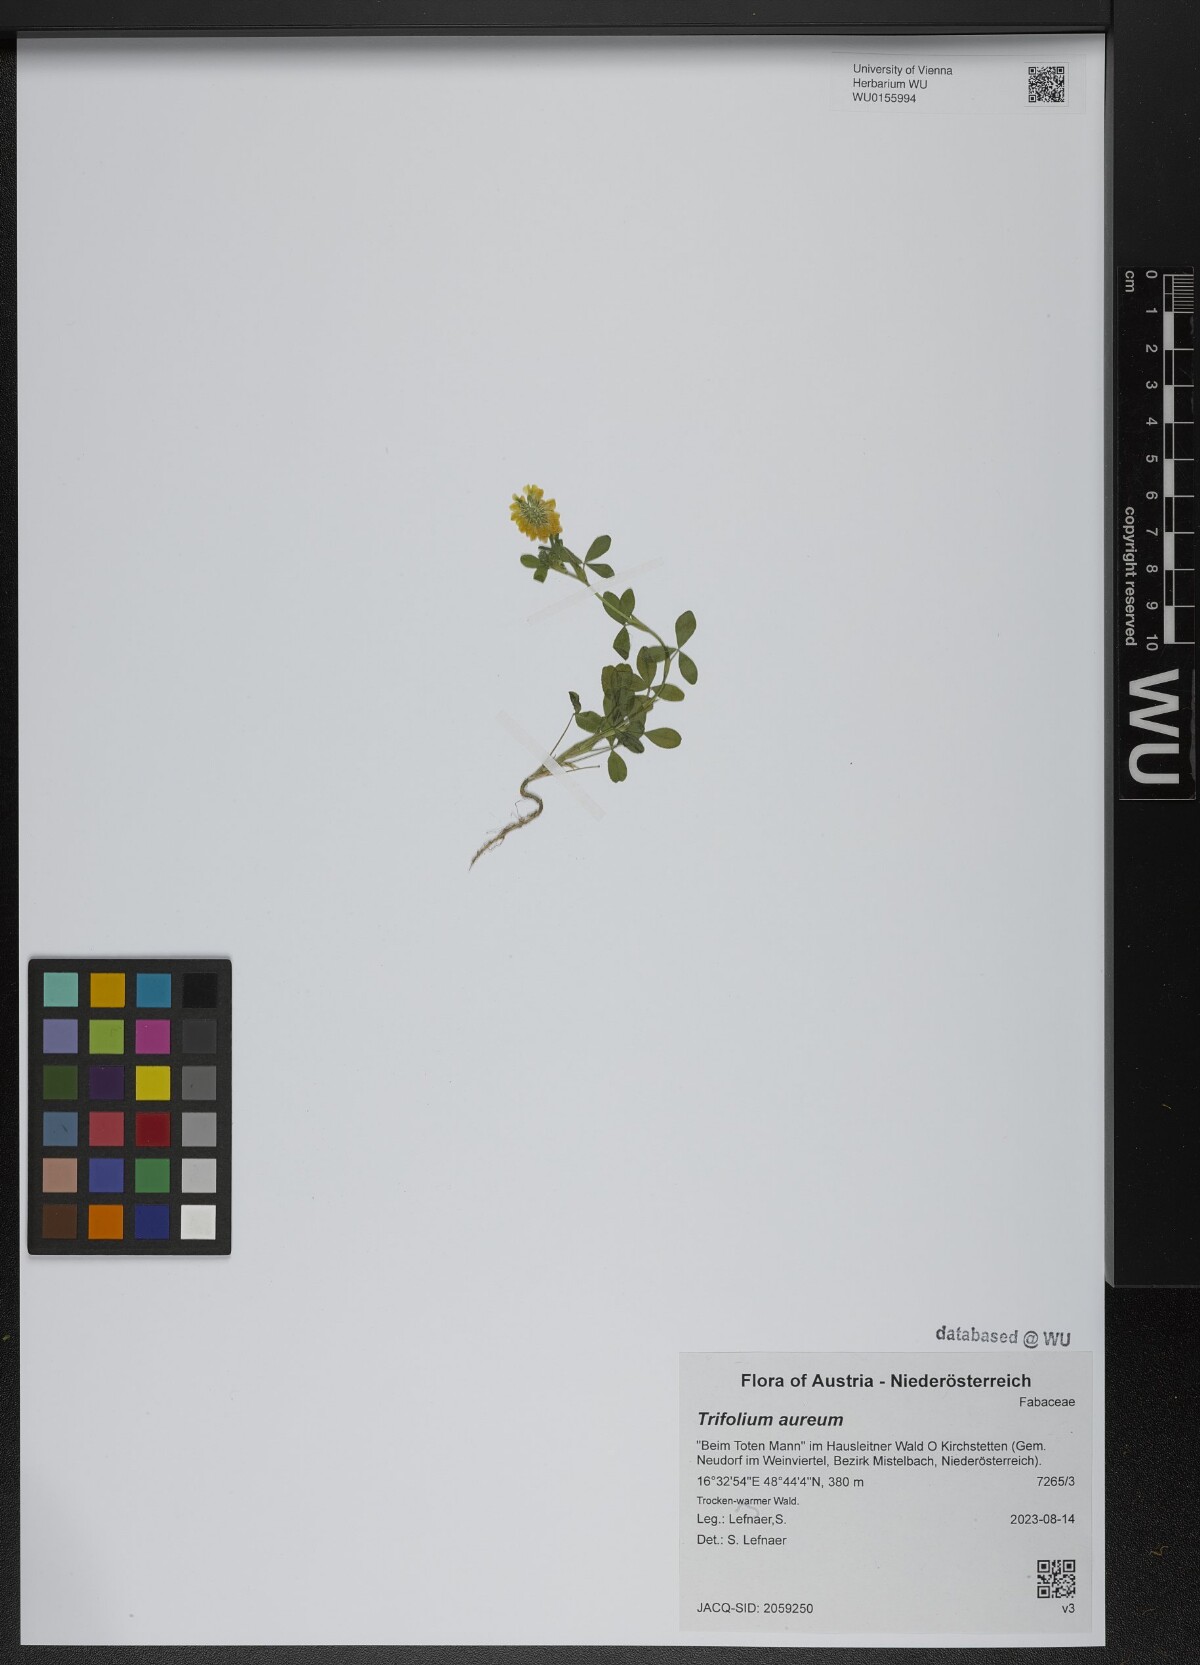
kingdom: Plantae
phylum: Tracheophyta
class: Magnoliopsida
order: Fabales
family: Fabaceae
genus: Trifolium
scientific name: Trifolium aureum
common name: Golden clover
